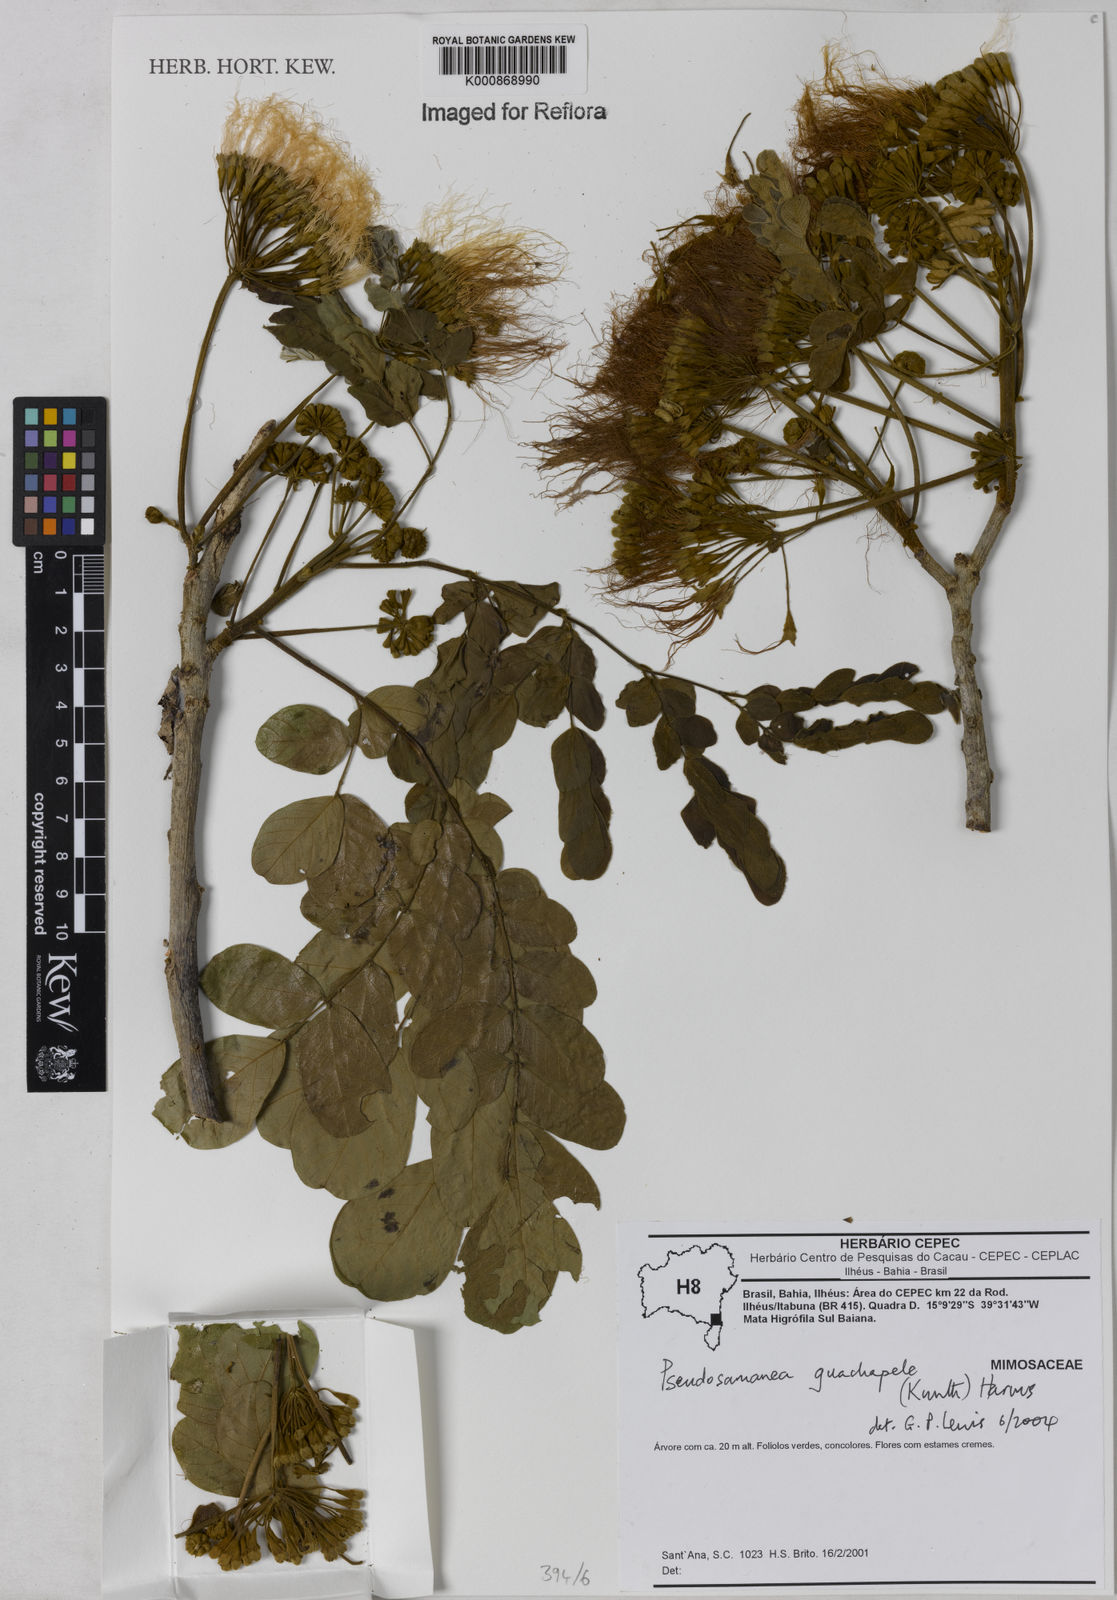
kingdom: Plantae
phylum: Tracheophyta
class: Magnoliopsida
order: Fabales
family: Fabaceae
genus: Pseudosamanea
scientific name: Pseudosamanea guachapele
